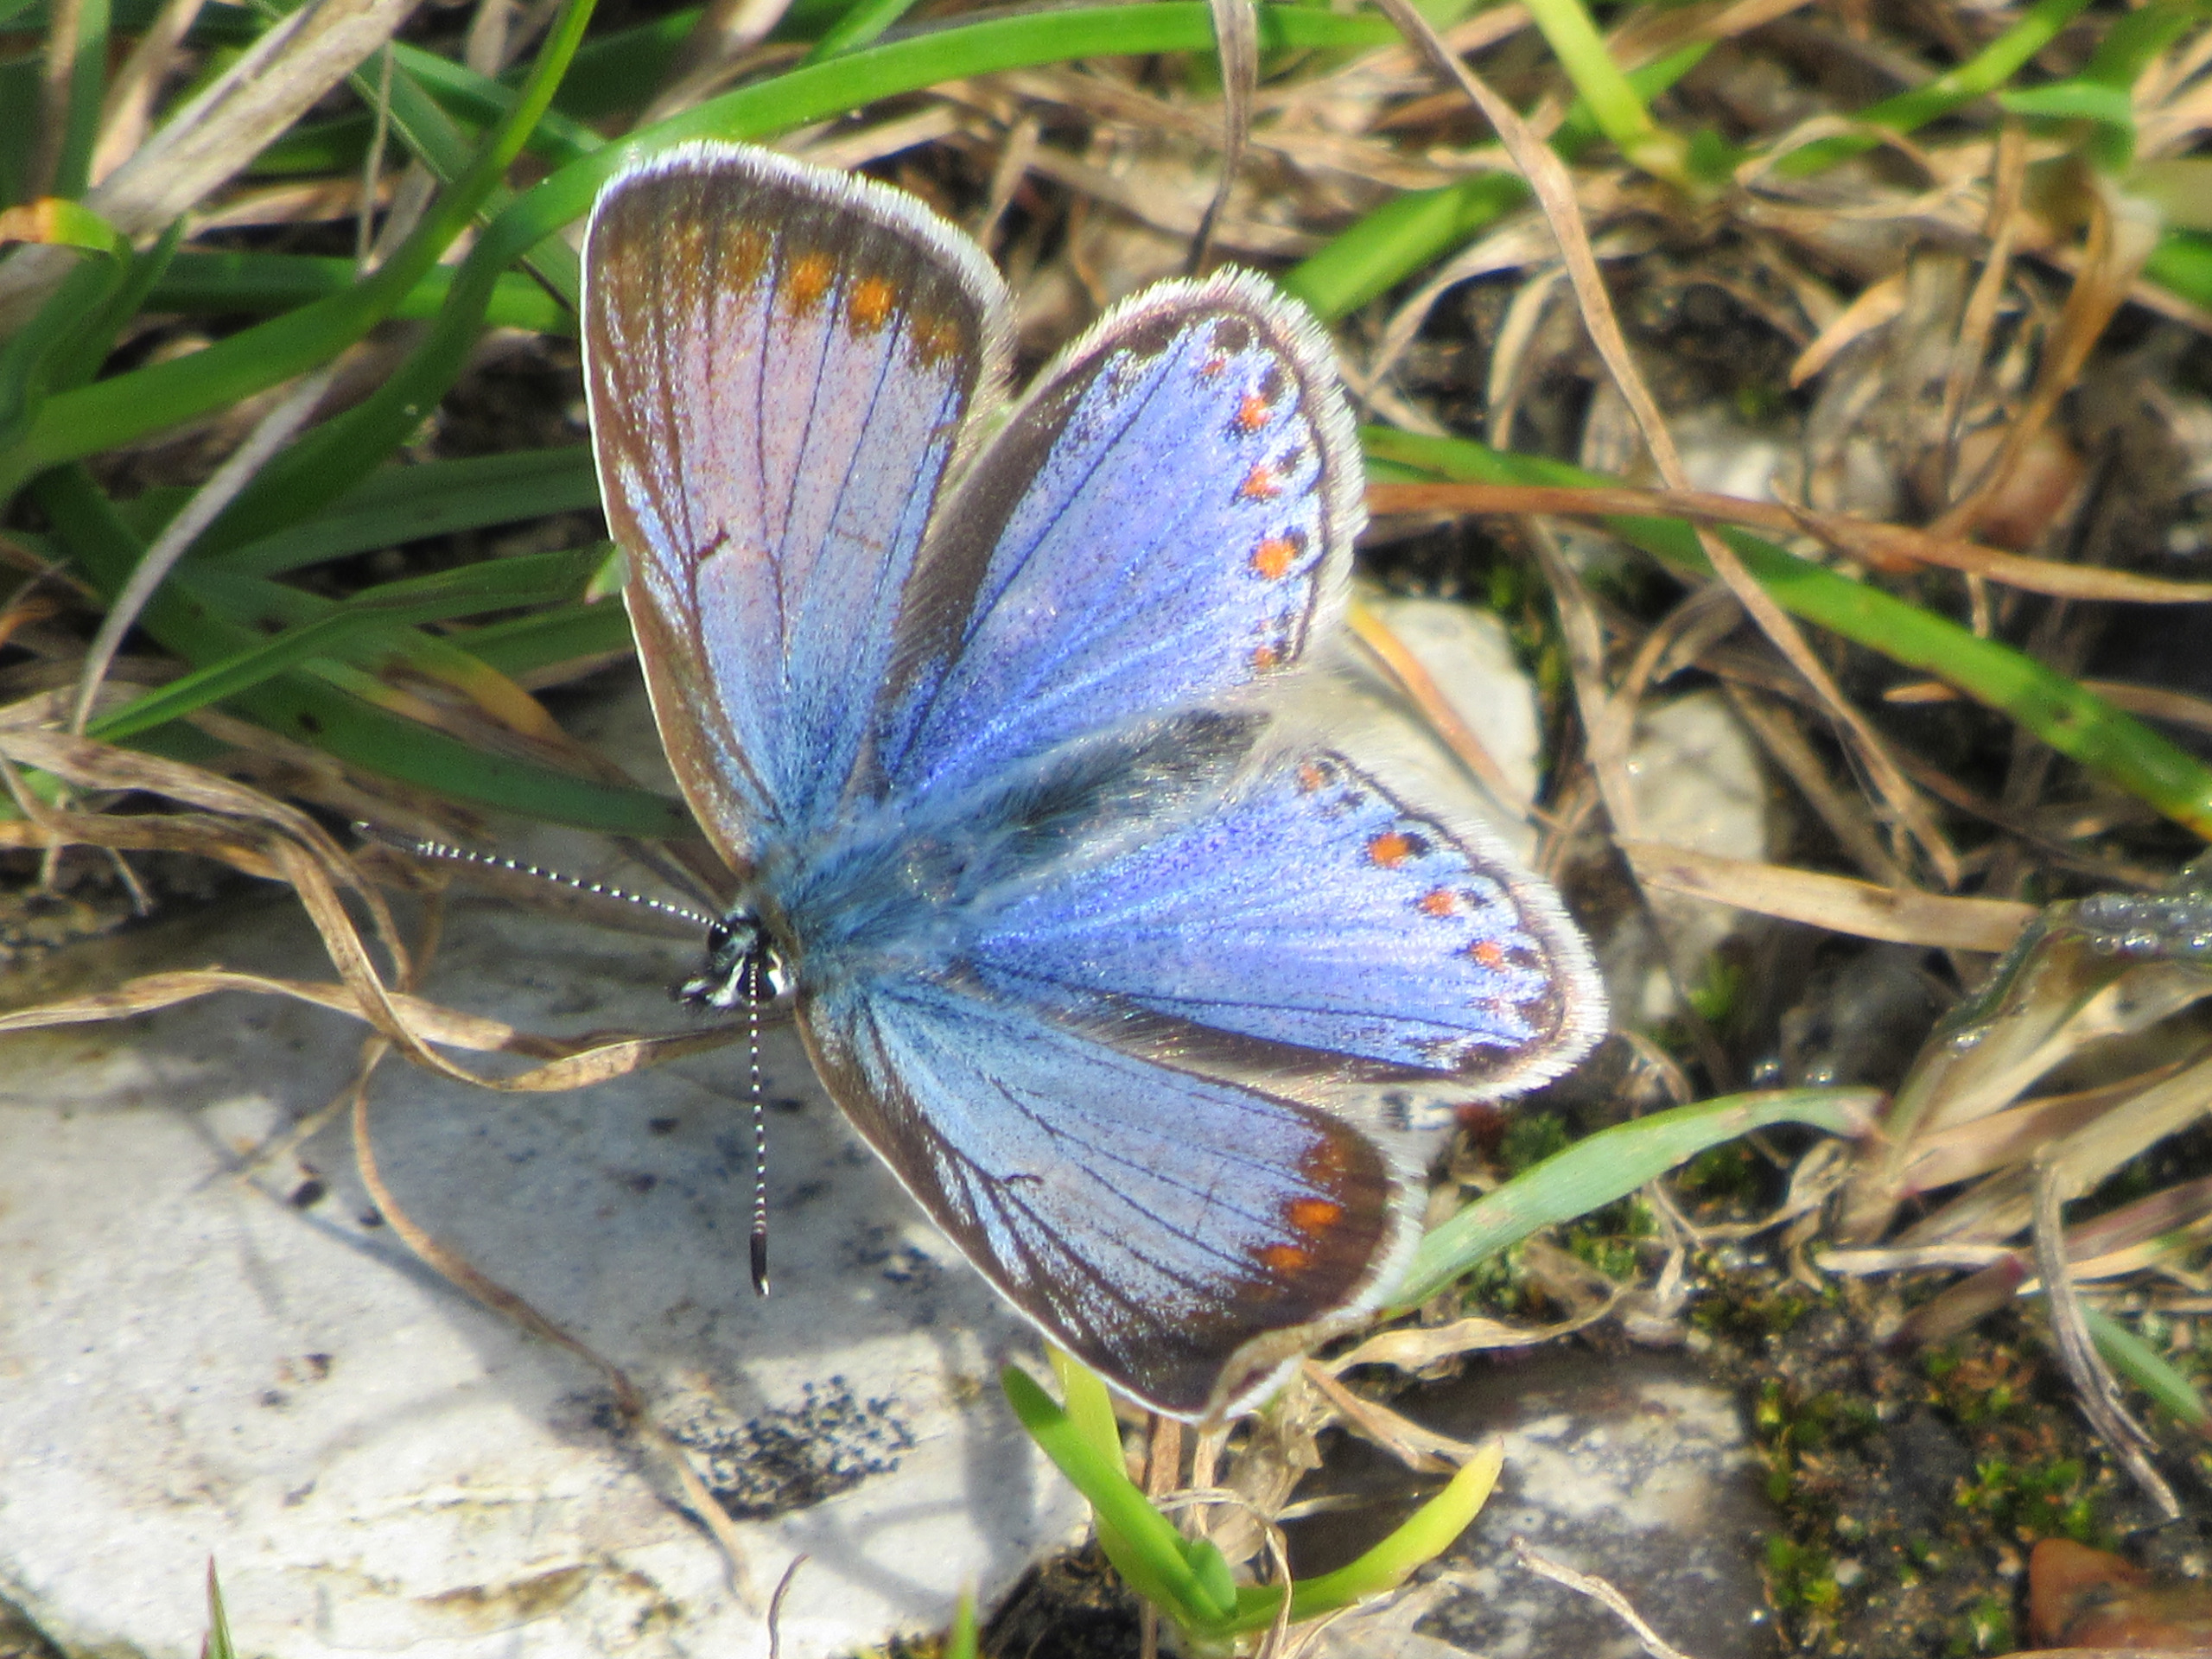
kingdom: Animalia
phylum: Arthropoda
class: Insecta
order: Lepidoptera
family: Lycaenidae
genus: Polyommatus
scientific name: Polyommatus icarus
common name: Almindelig blåfugl
